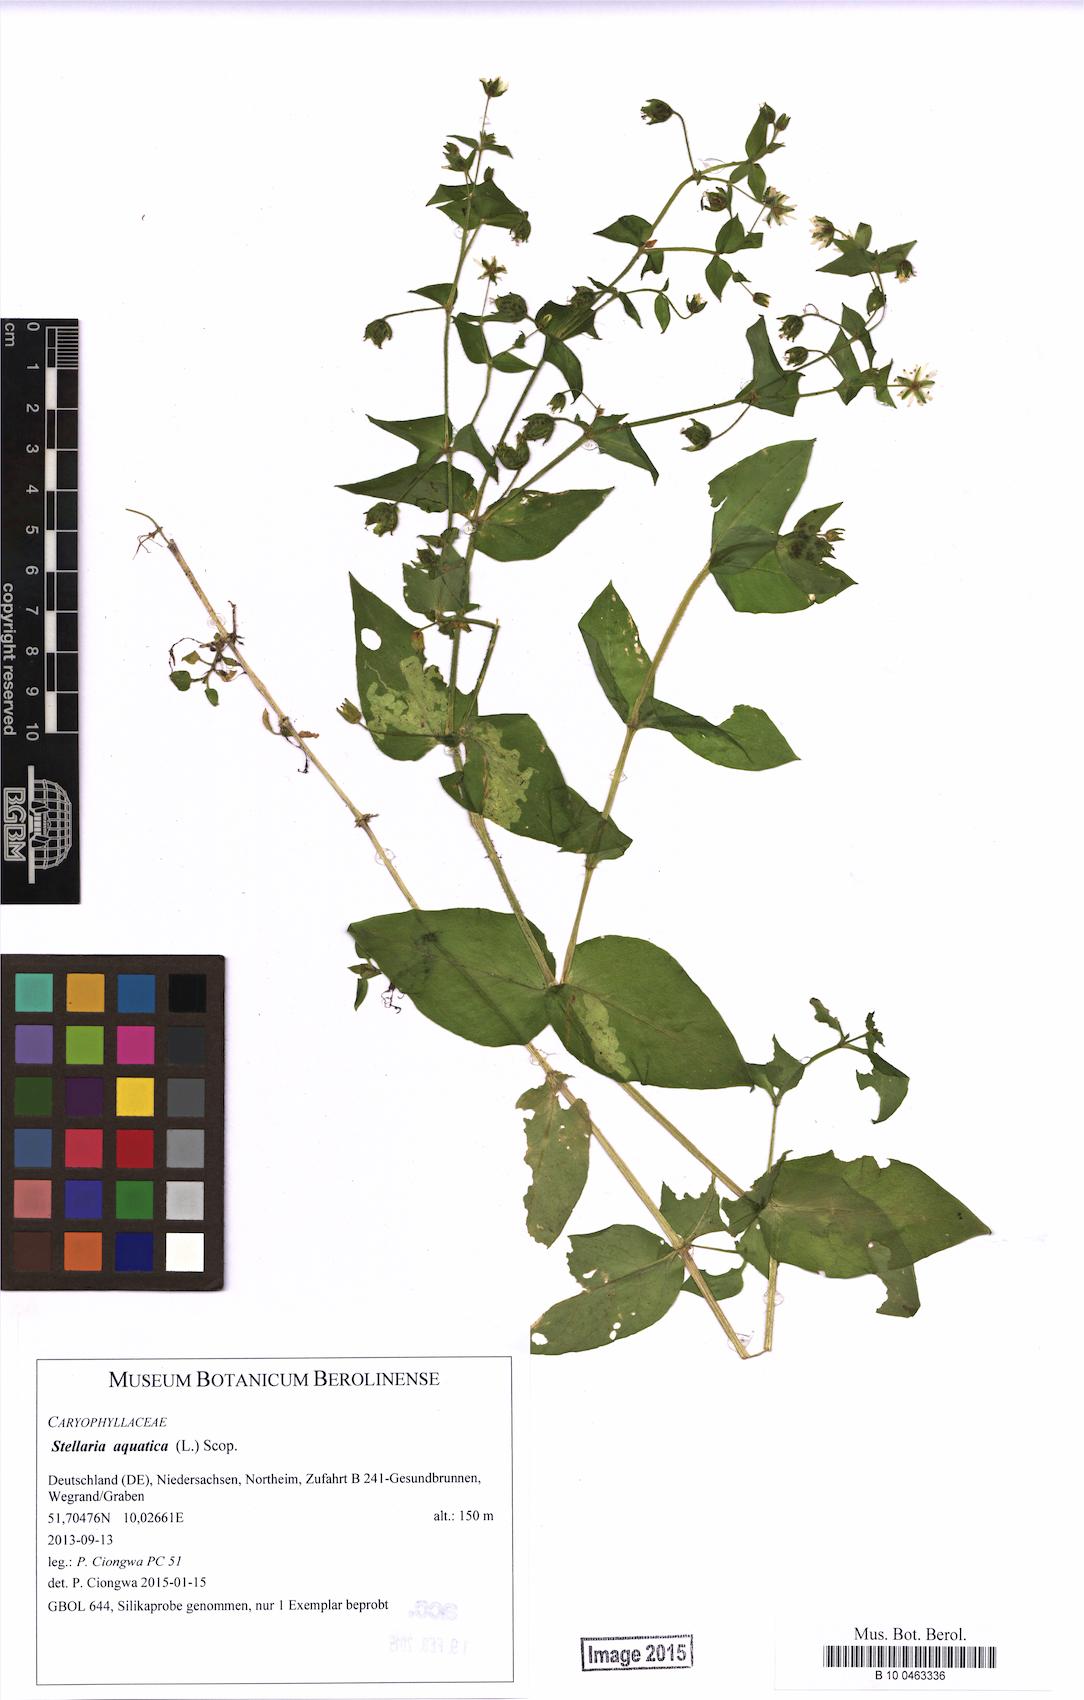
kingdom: Plantae
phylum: Tracheophyta
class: Magnoliopsida
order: Caryophyllales
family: Caryophyllaceae
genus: Stellaria
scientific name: Stellaria aquatica
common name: Water chickweed
